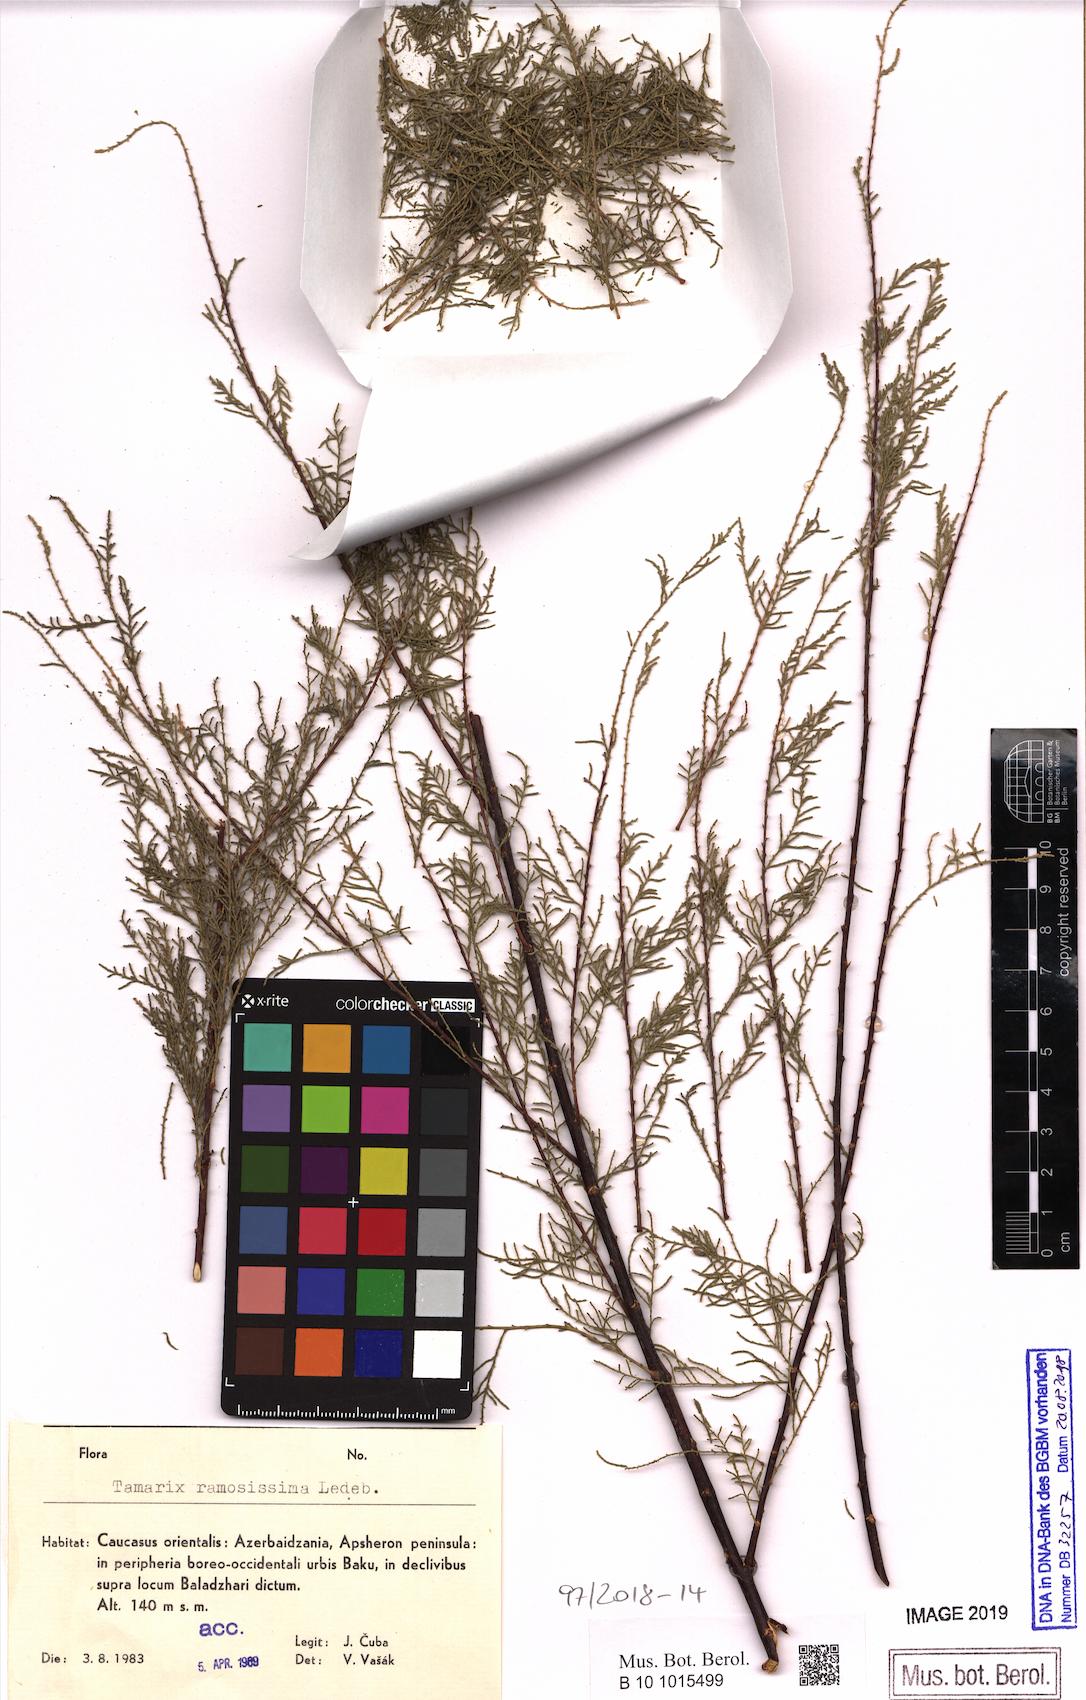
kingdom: Plantae
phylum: Tracheophyta
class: Magnoliopsida
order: Caryophyllales
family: Tamaricaceae
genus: Tamarix
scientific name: Tamarix ramosissima
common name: Pink tamarisk
